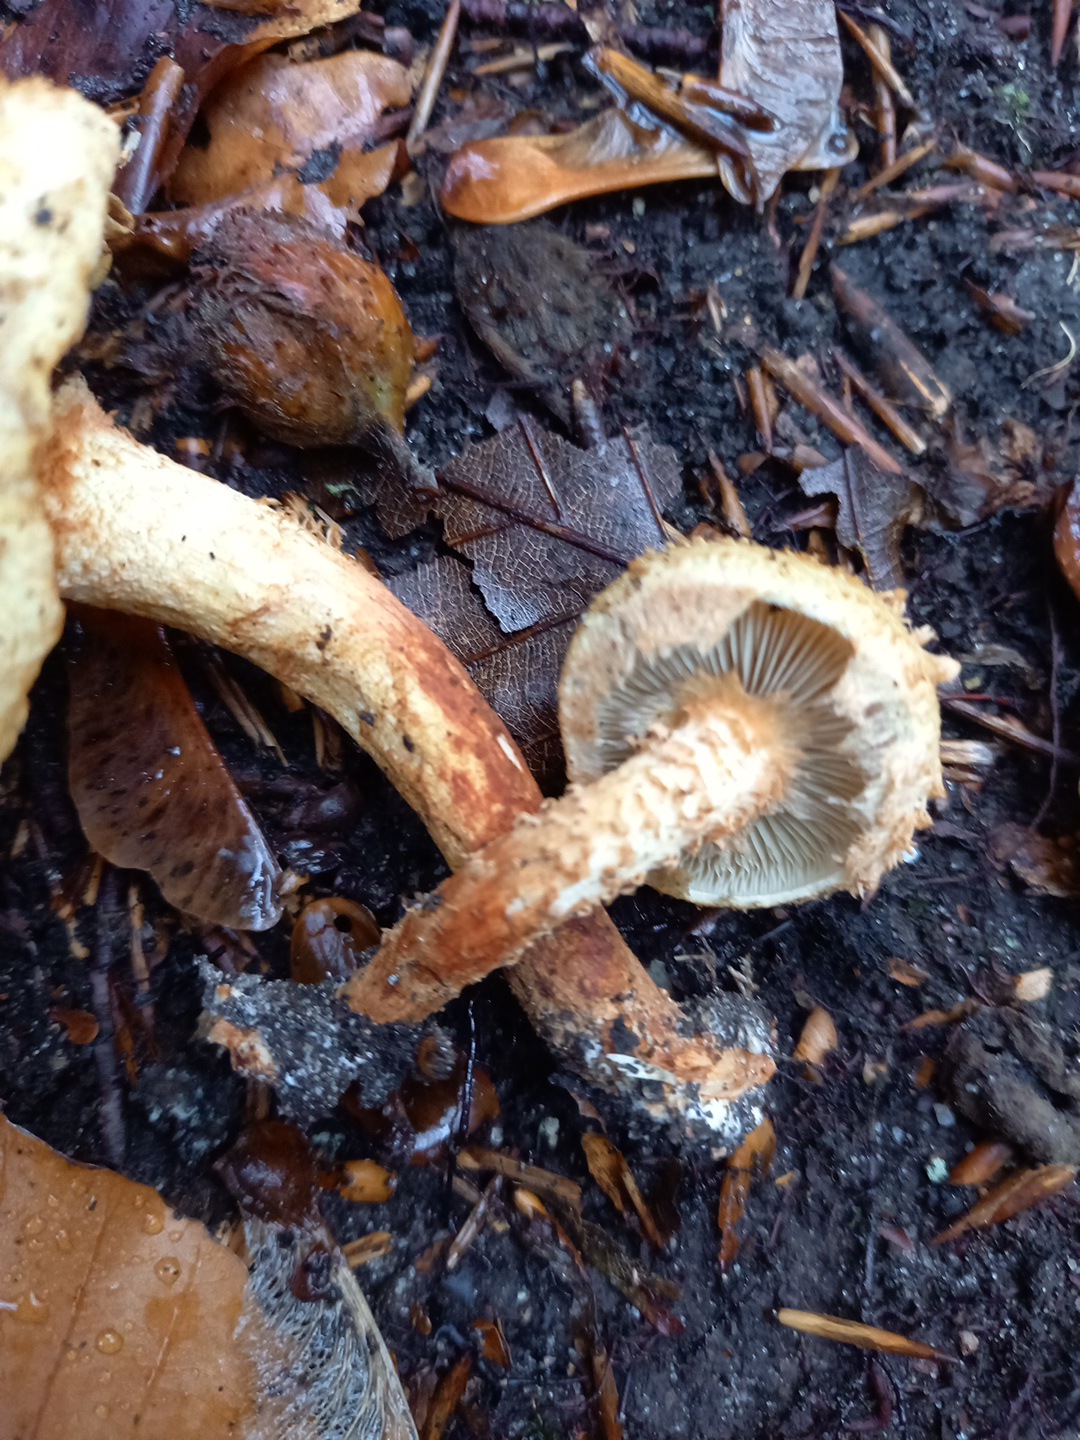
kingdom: Fungi
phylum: Basidiomycota
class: Agaricomycetes
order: Agaricales
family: Strophariaceae
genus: Pholiota
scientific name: Pholiota squarrosa
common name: krumskællet skælhat
